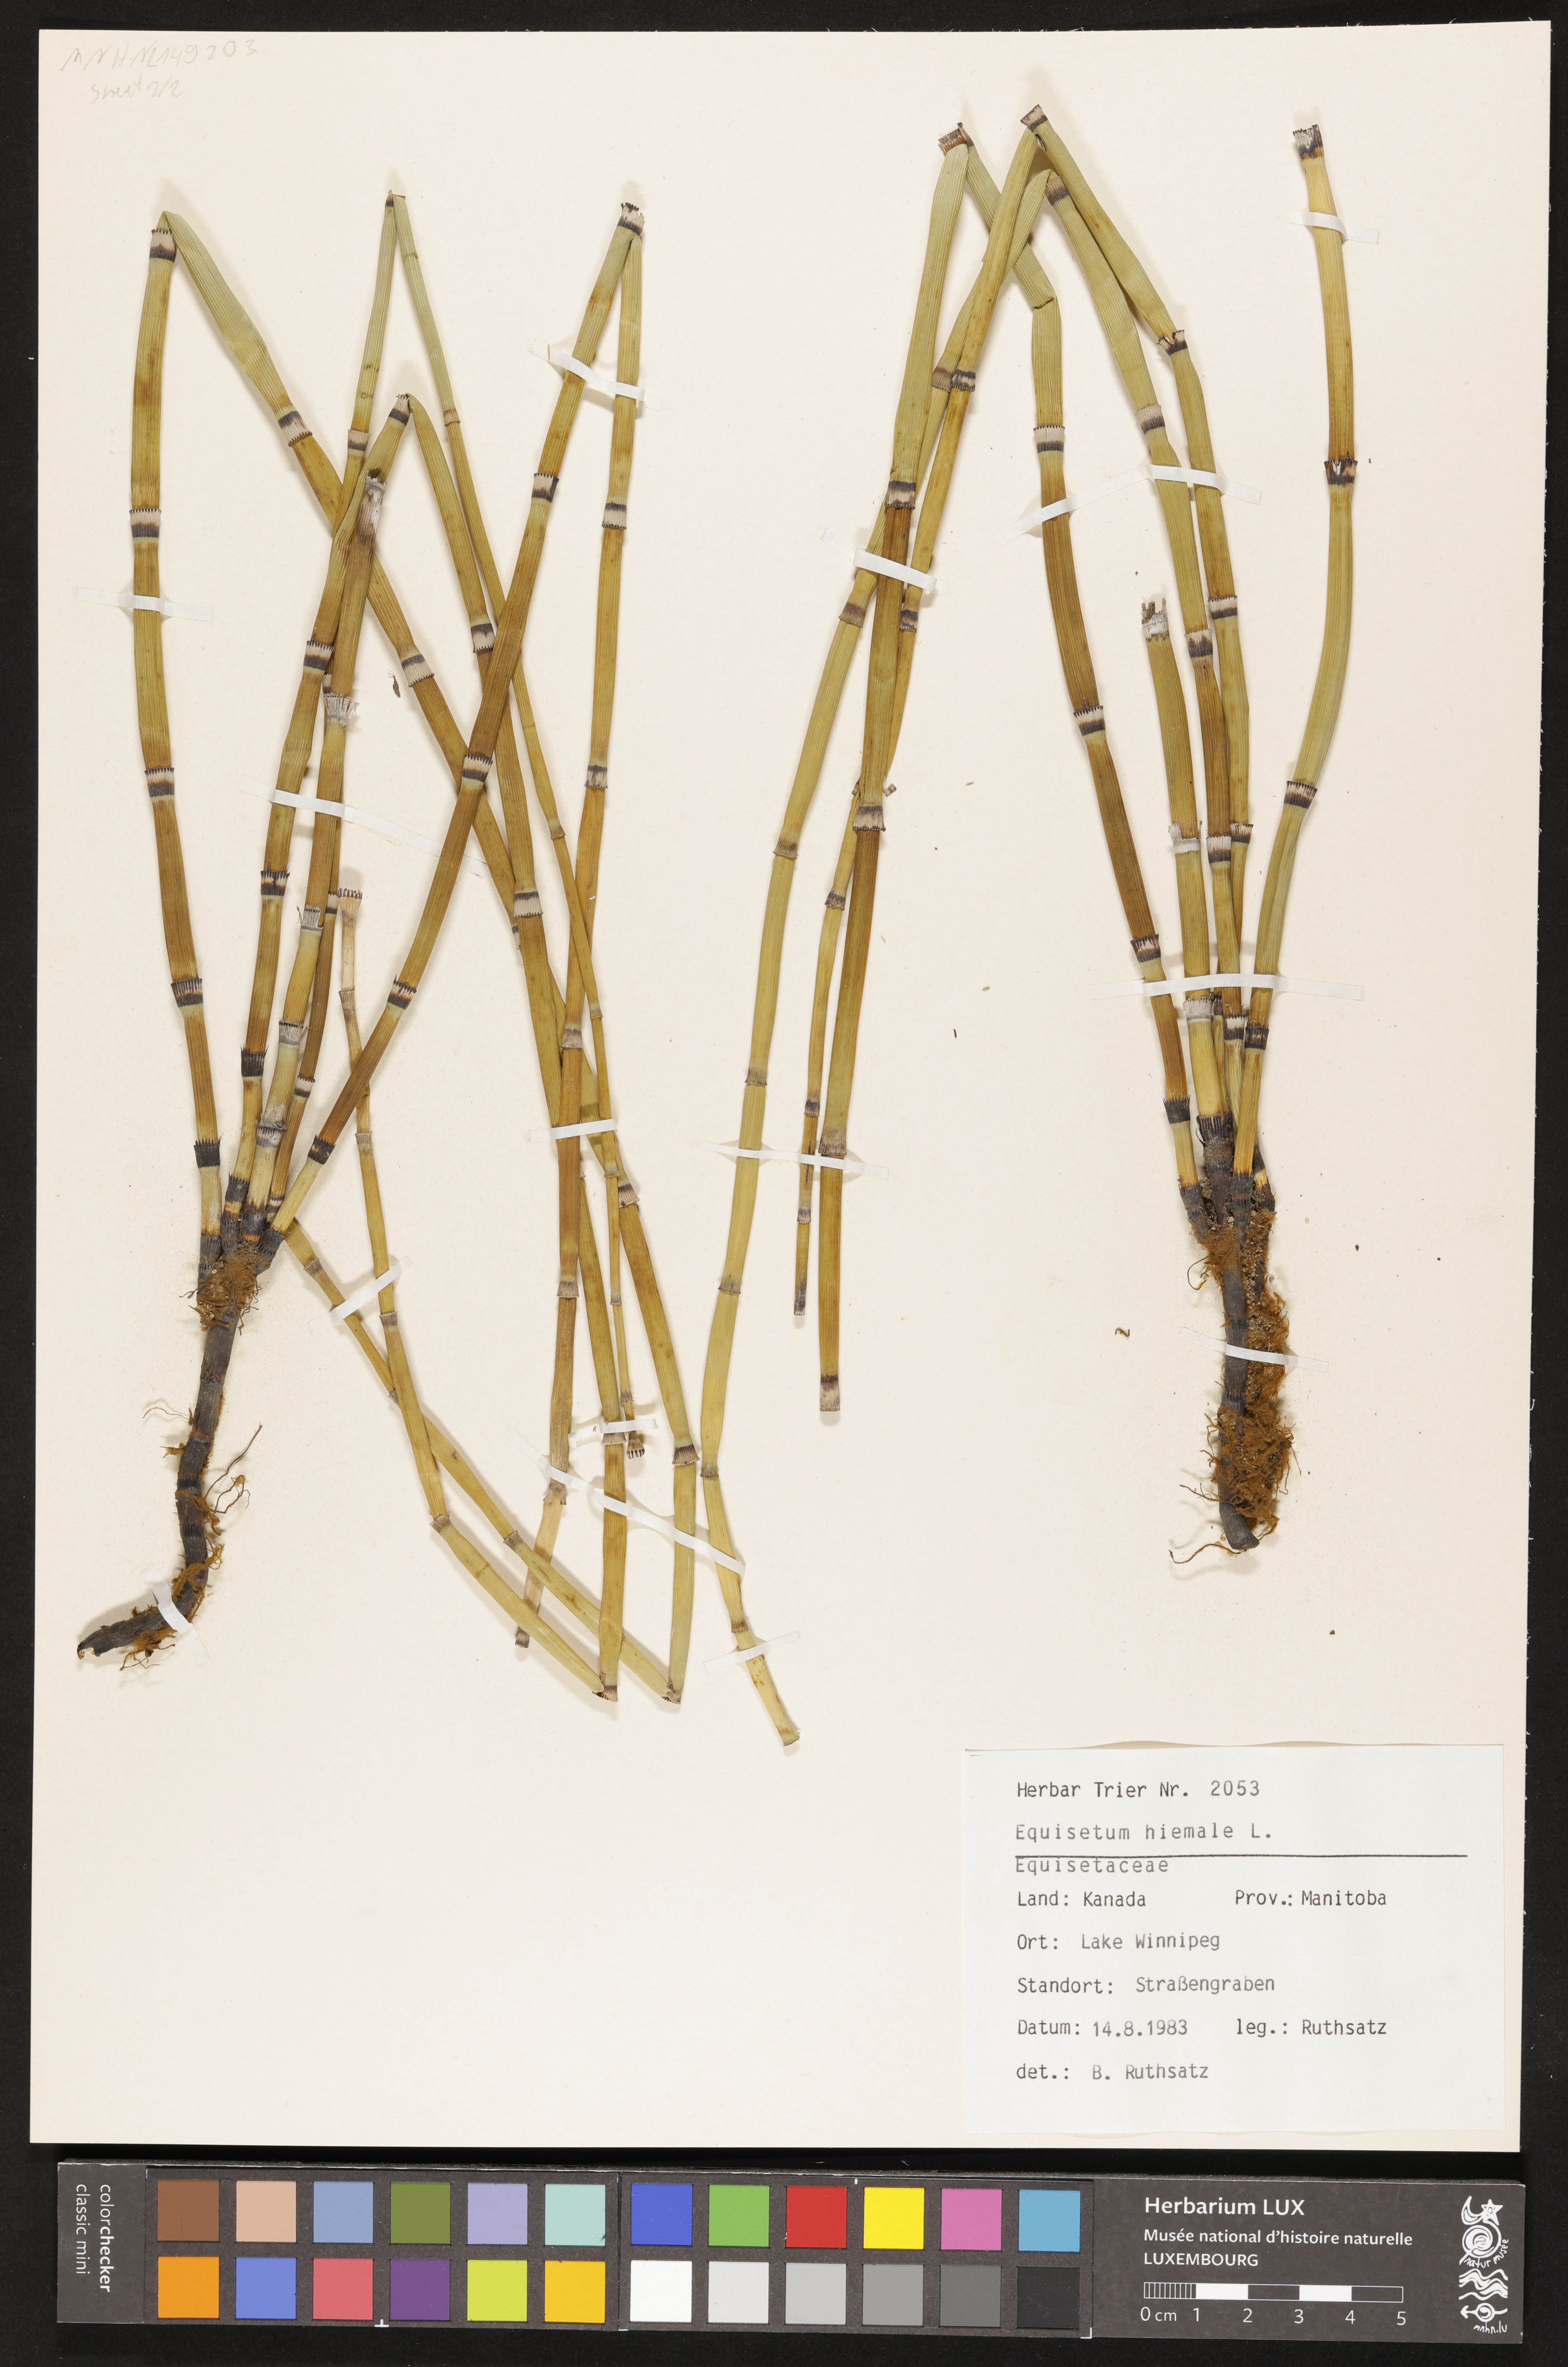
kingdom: Plantae
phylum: Tracheophyta
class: Polypodiopsida
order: Equisetales
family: Equisetaceae
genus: Equisetum
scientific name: Equisetum hyemale
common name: Rough horsetail
